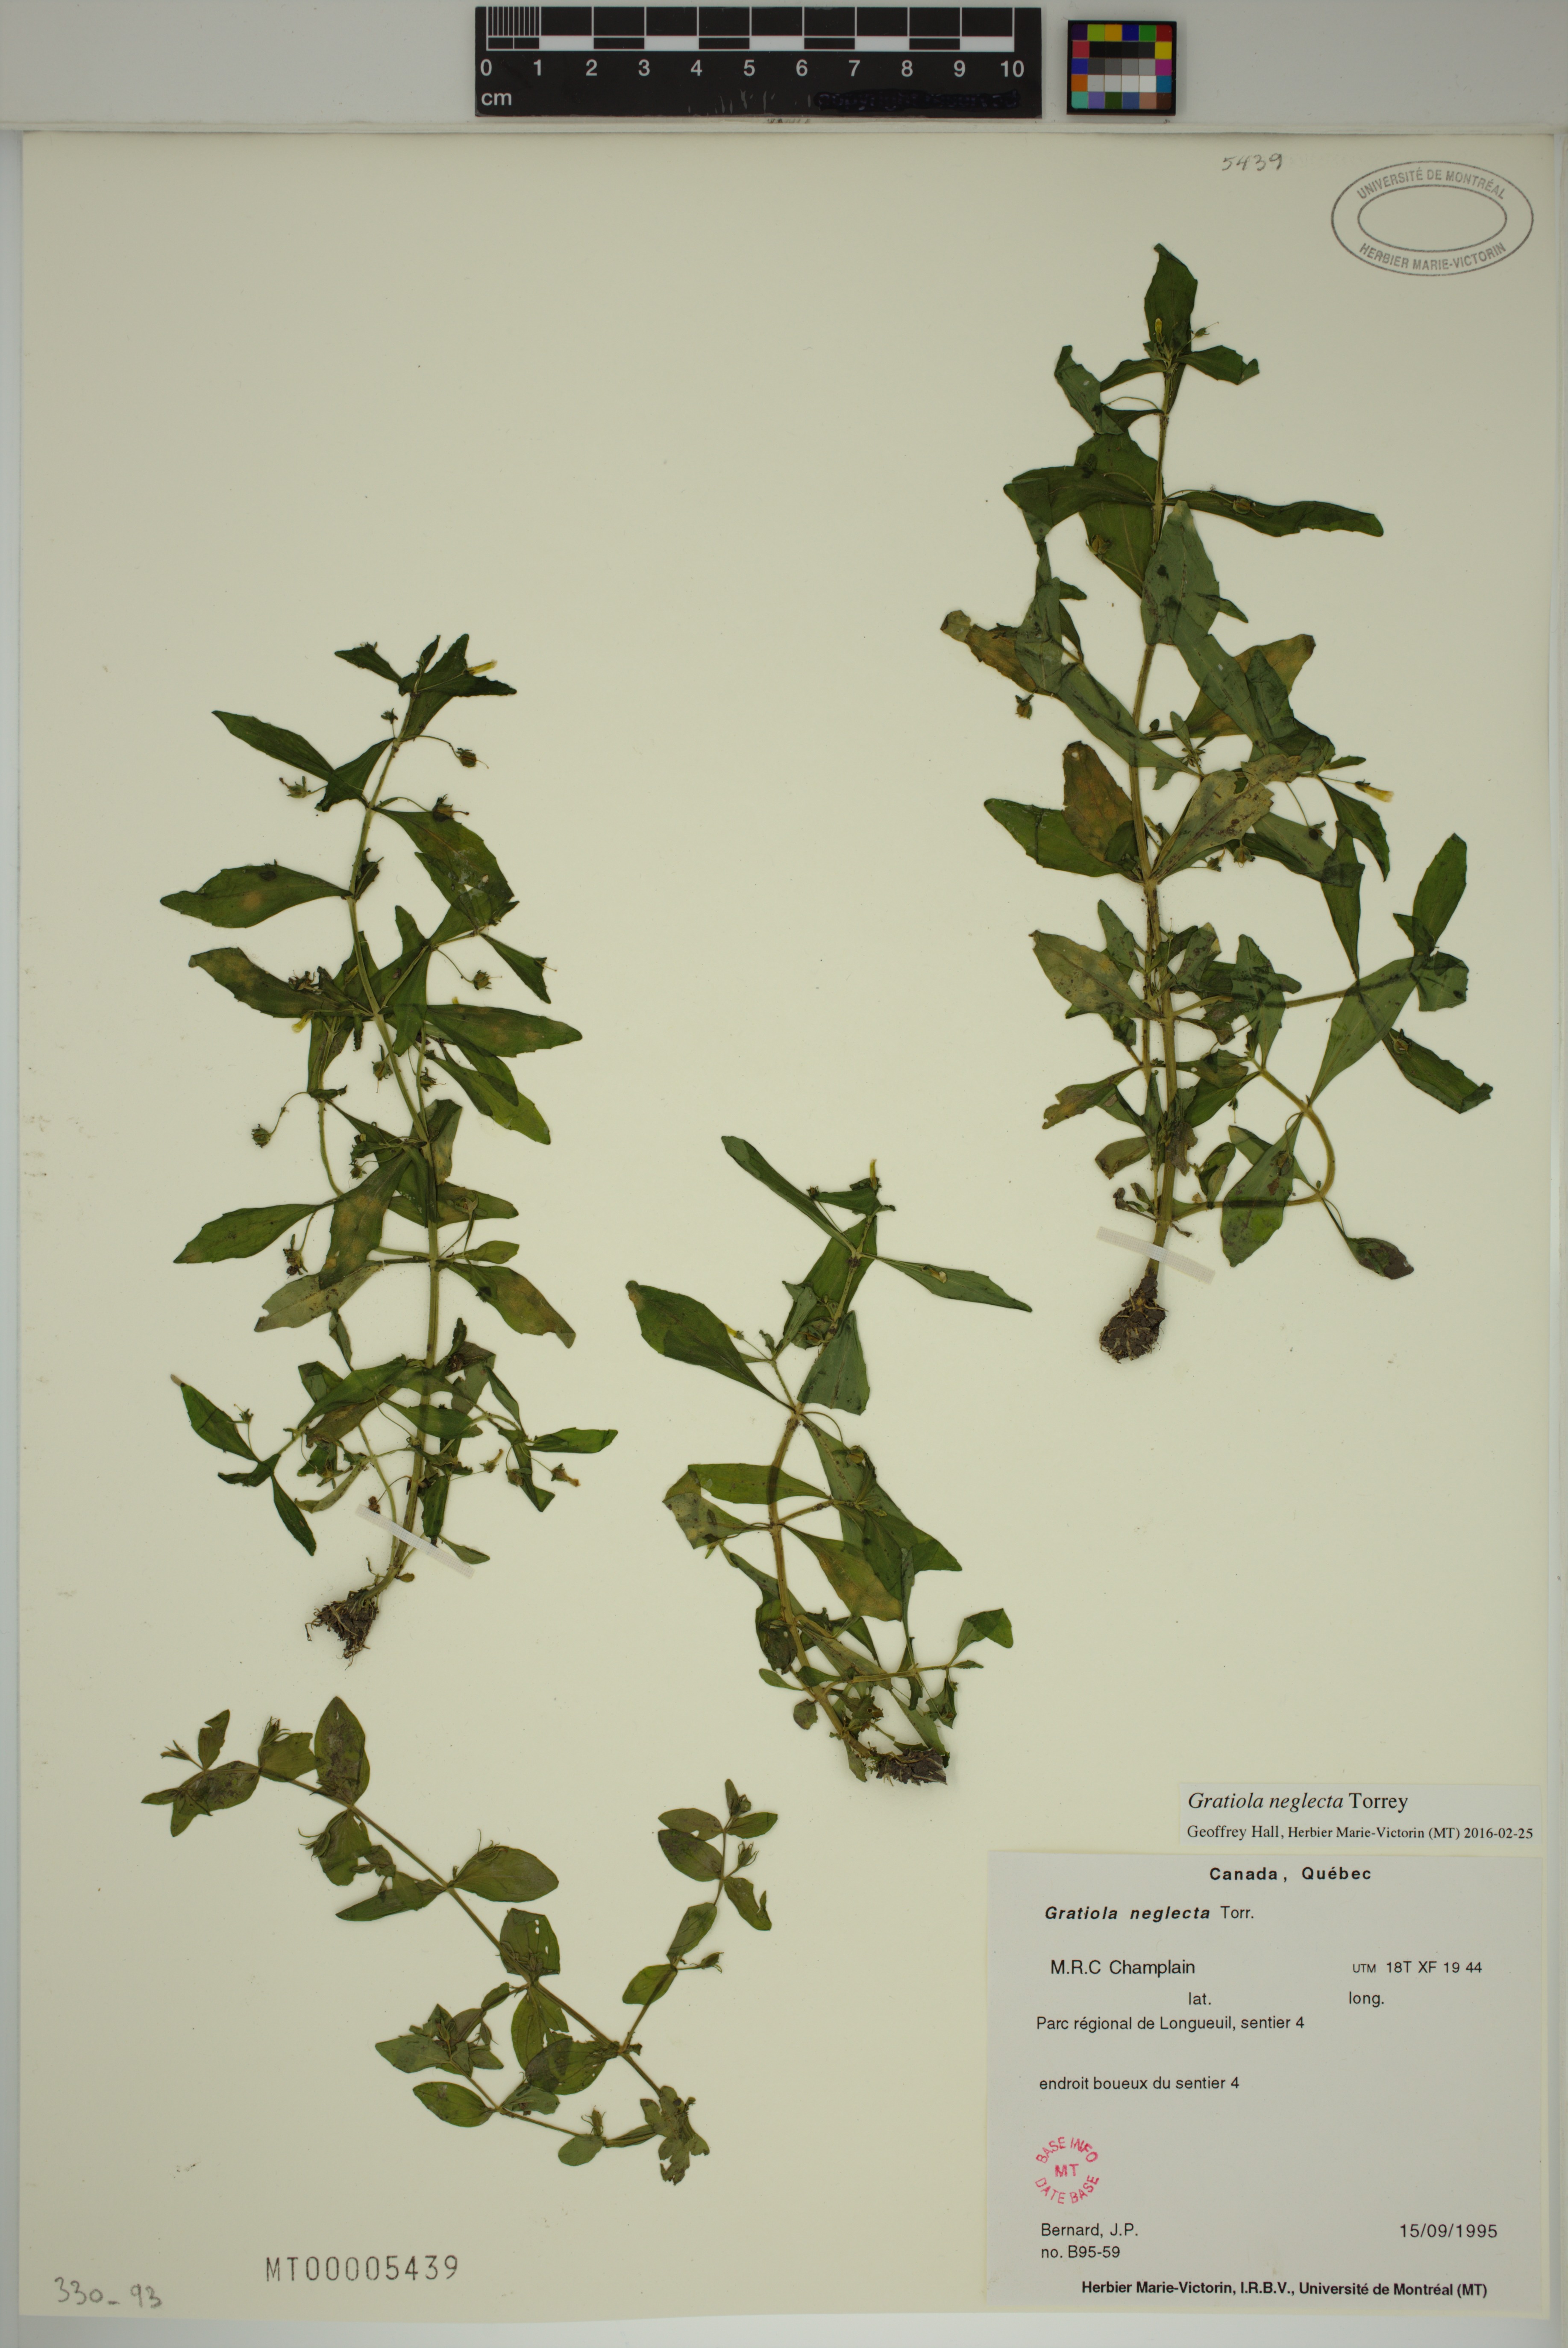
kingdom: Plantae
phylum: Tracheophyta
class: Magnoliopsida
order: Lamiales
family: Plantaginaceae
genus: Gratiola
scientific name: Gratiola neglecta
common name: American hedge-hyssop
